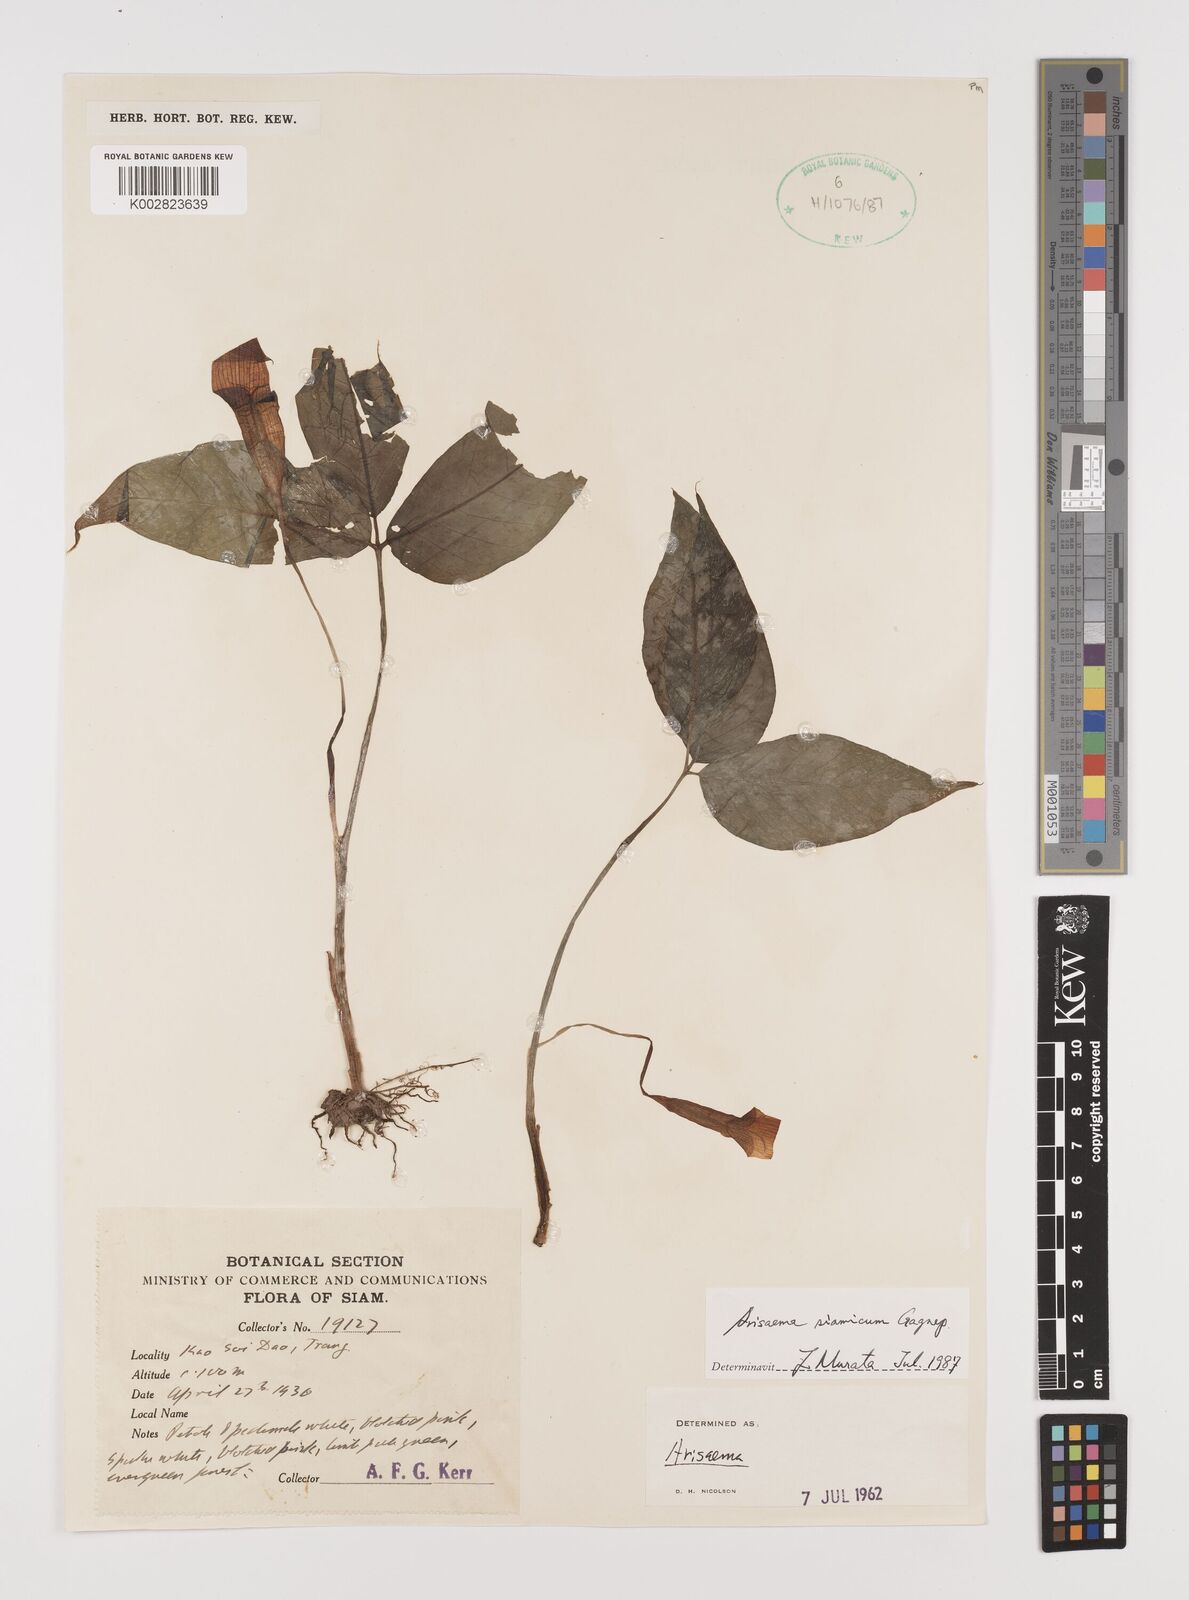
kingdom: Plantae
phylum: Tracheophyta
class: Liliopsida
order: Alismatales
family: Araceae
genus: Arisaema
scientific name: Arisaema siamicum
